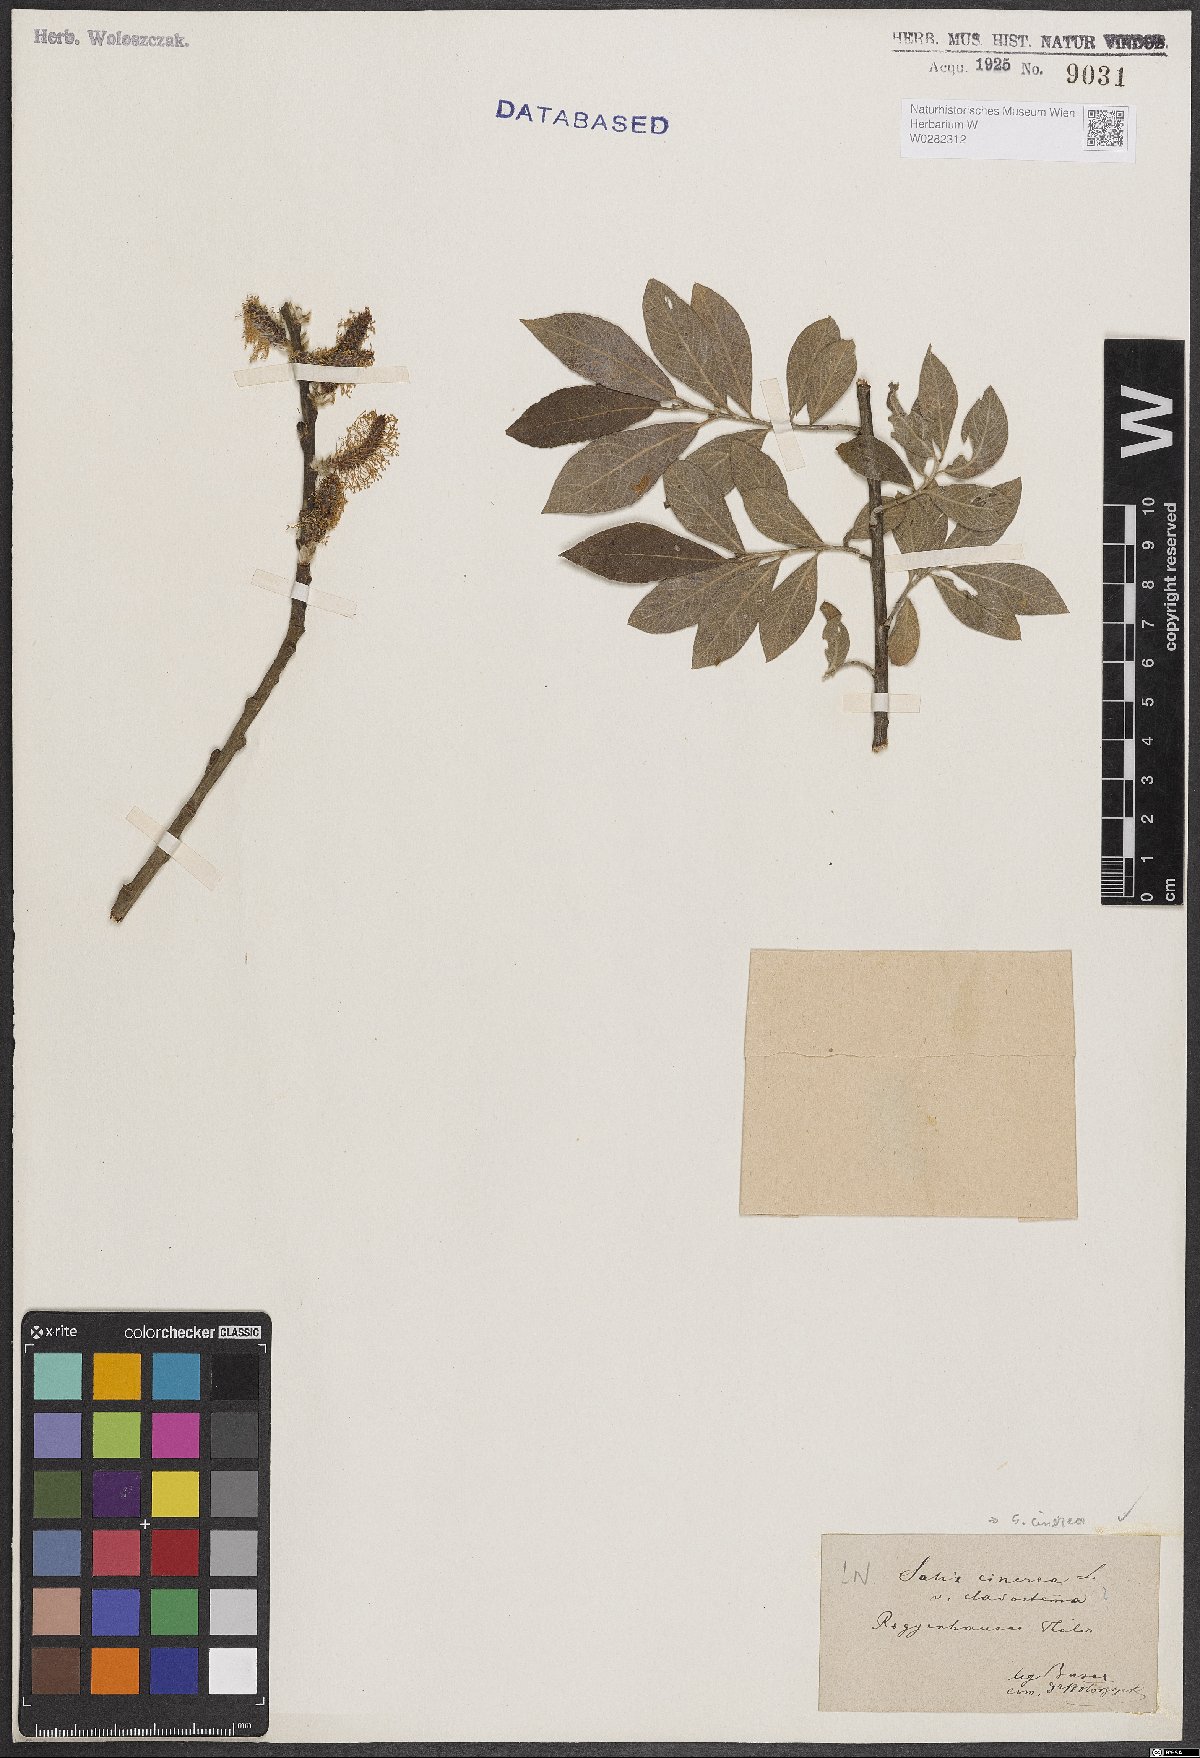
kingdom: Plantae
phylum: Tracheophyta
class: Magnoliopsida
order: Malpighiales
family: Salicaceae
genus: Salix
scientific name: Salix cinerea
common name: Common sallow
